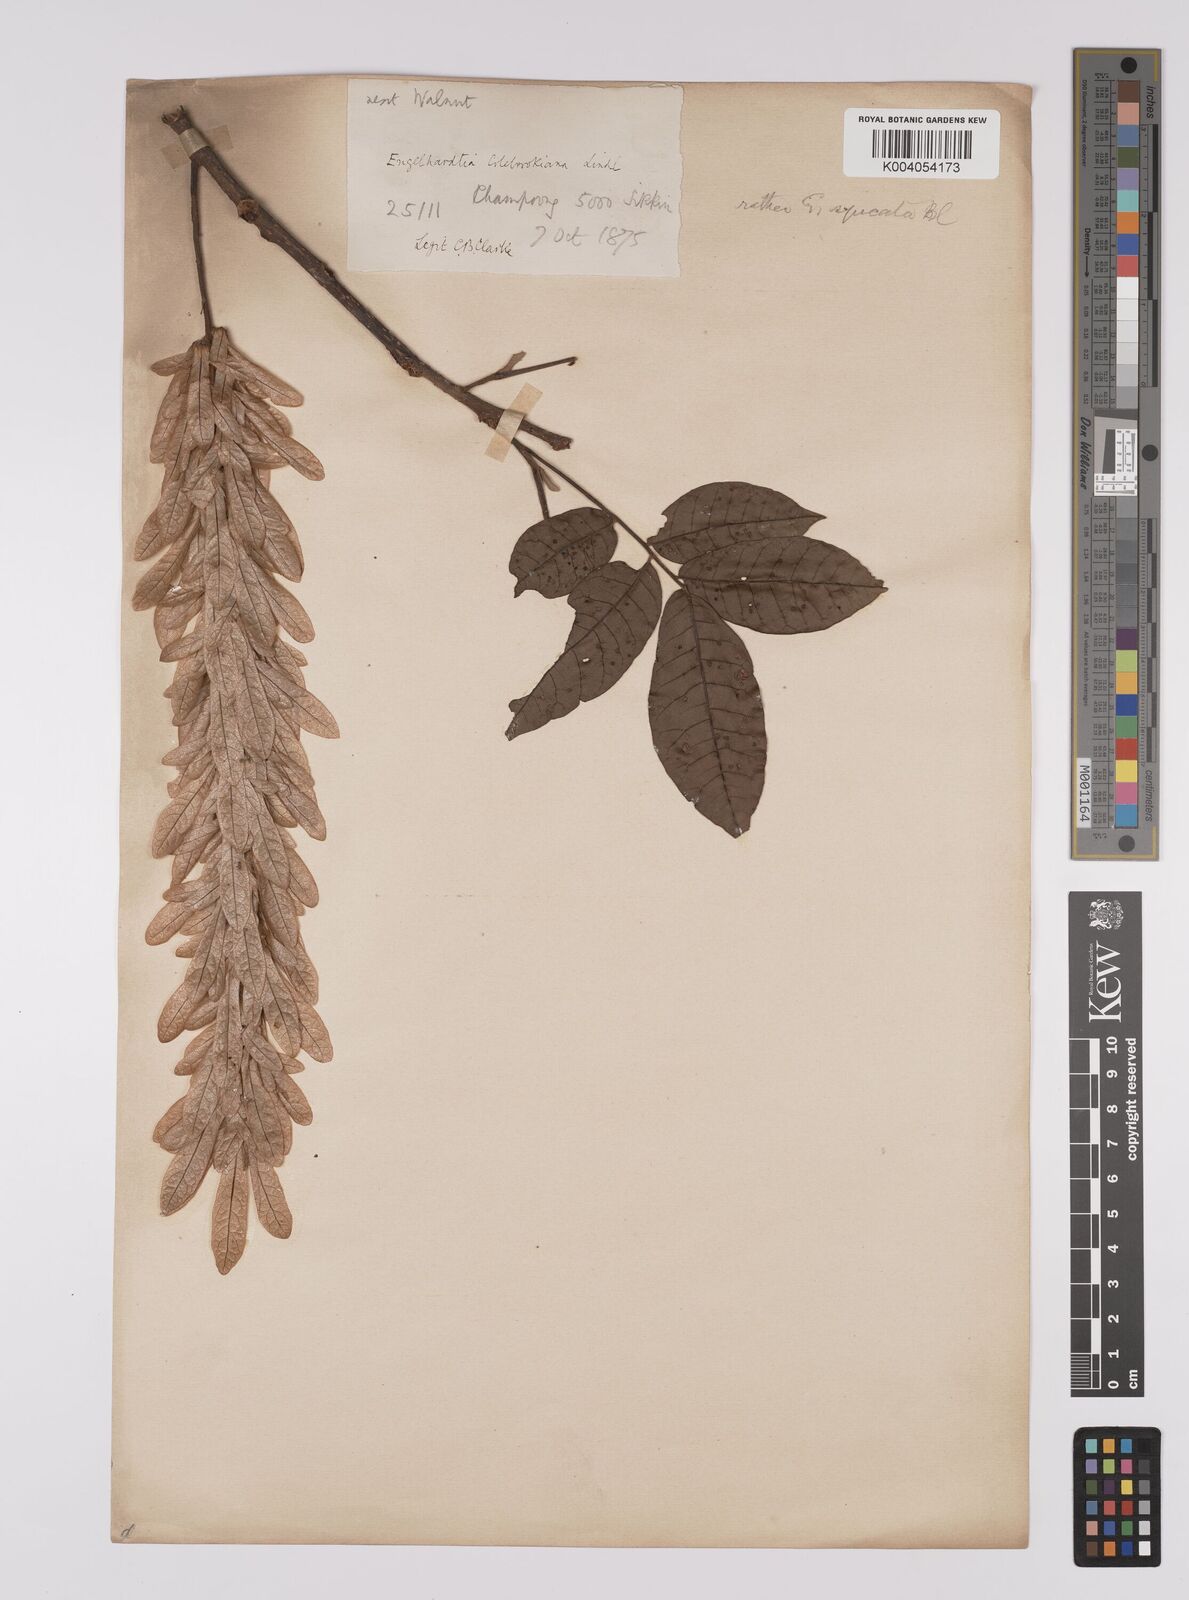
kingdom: Plantae
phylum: Tracheophyta
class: Magnoliopsida
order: Fagales
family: Juglandaceae
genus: Engelhardia
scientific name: Engelhardia spicata
